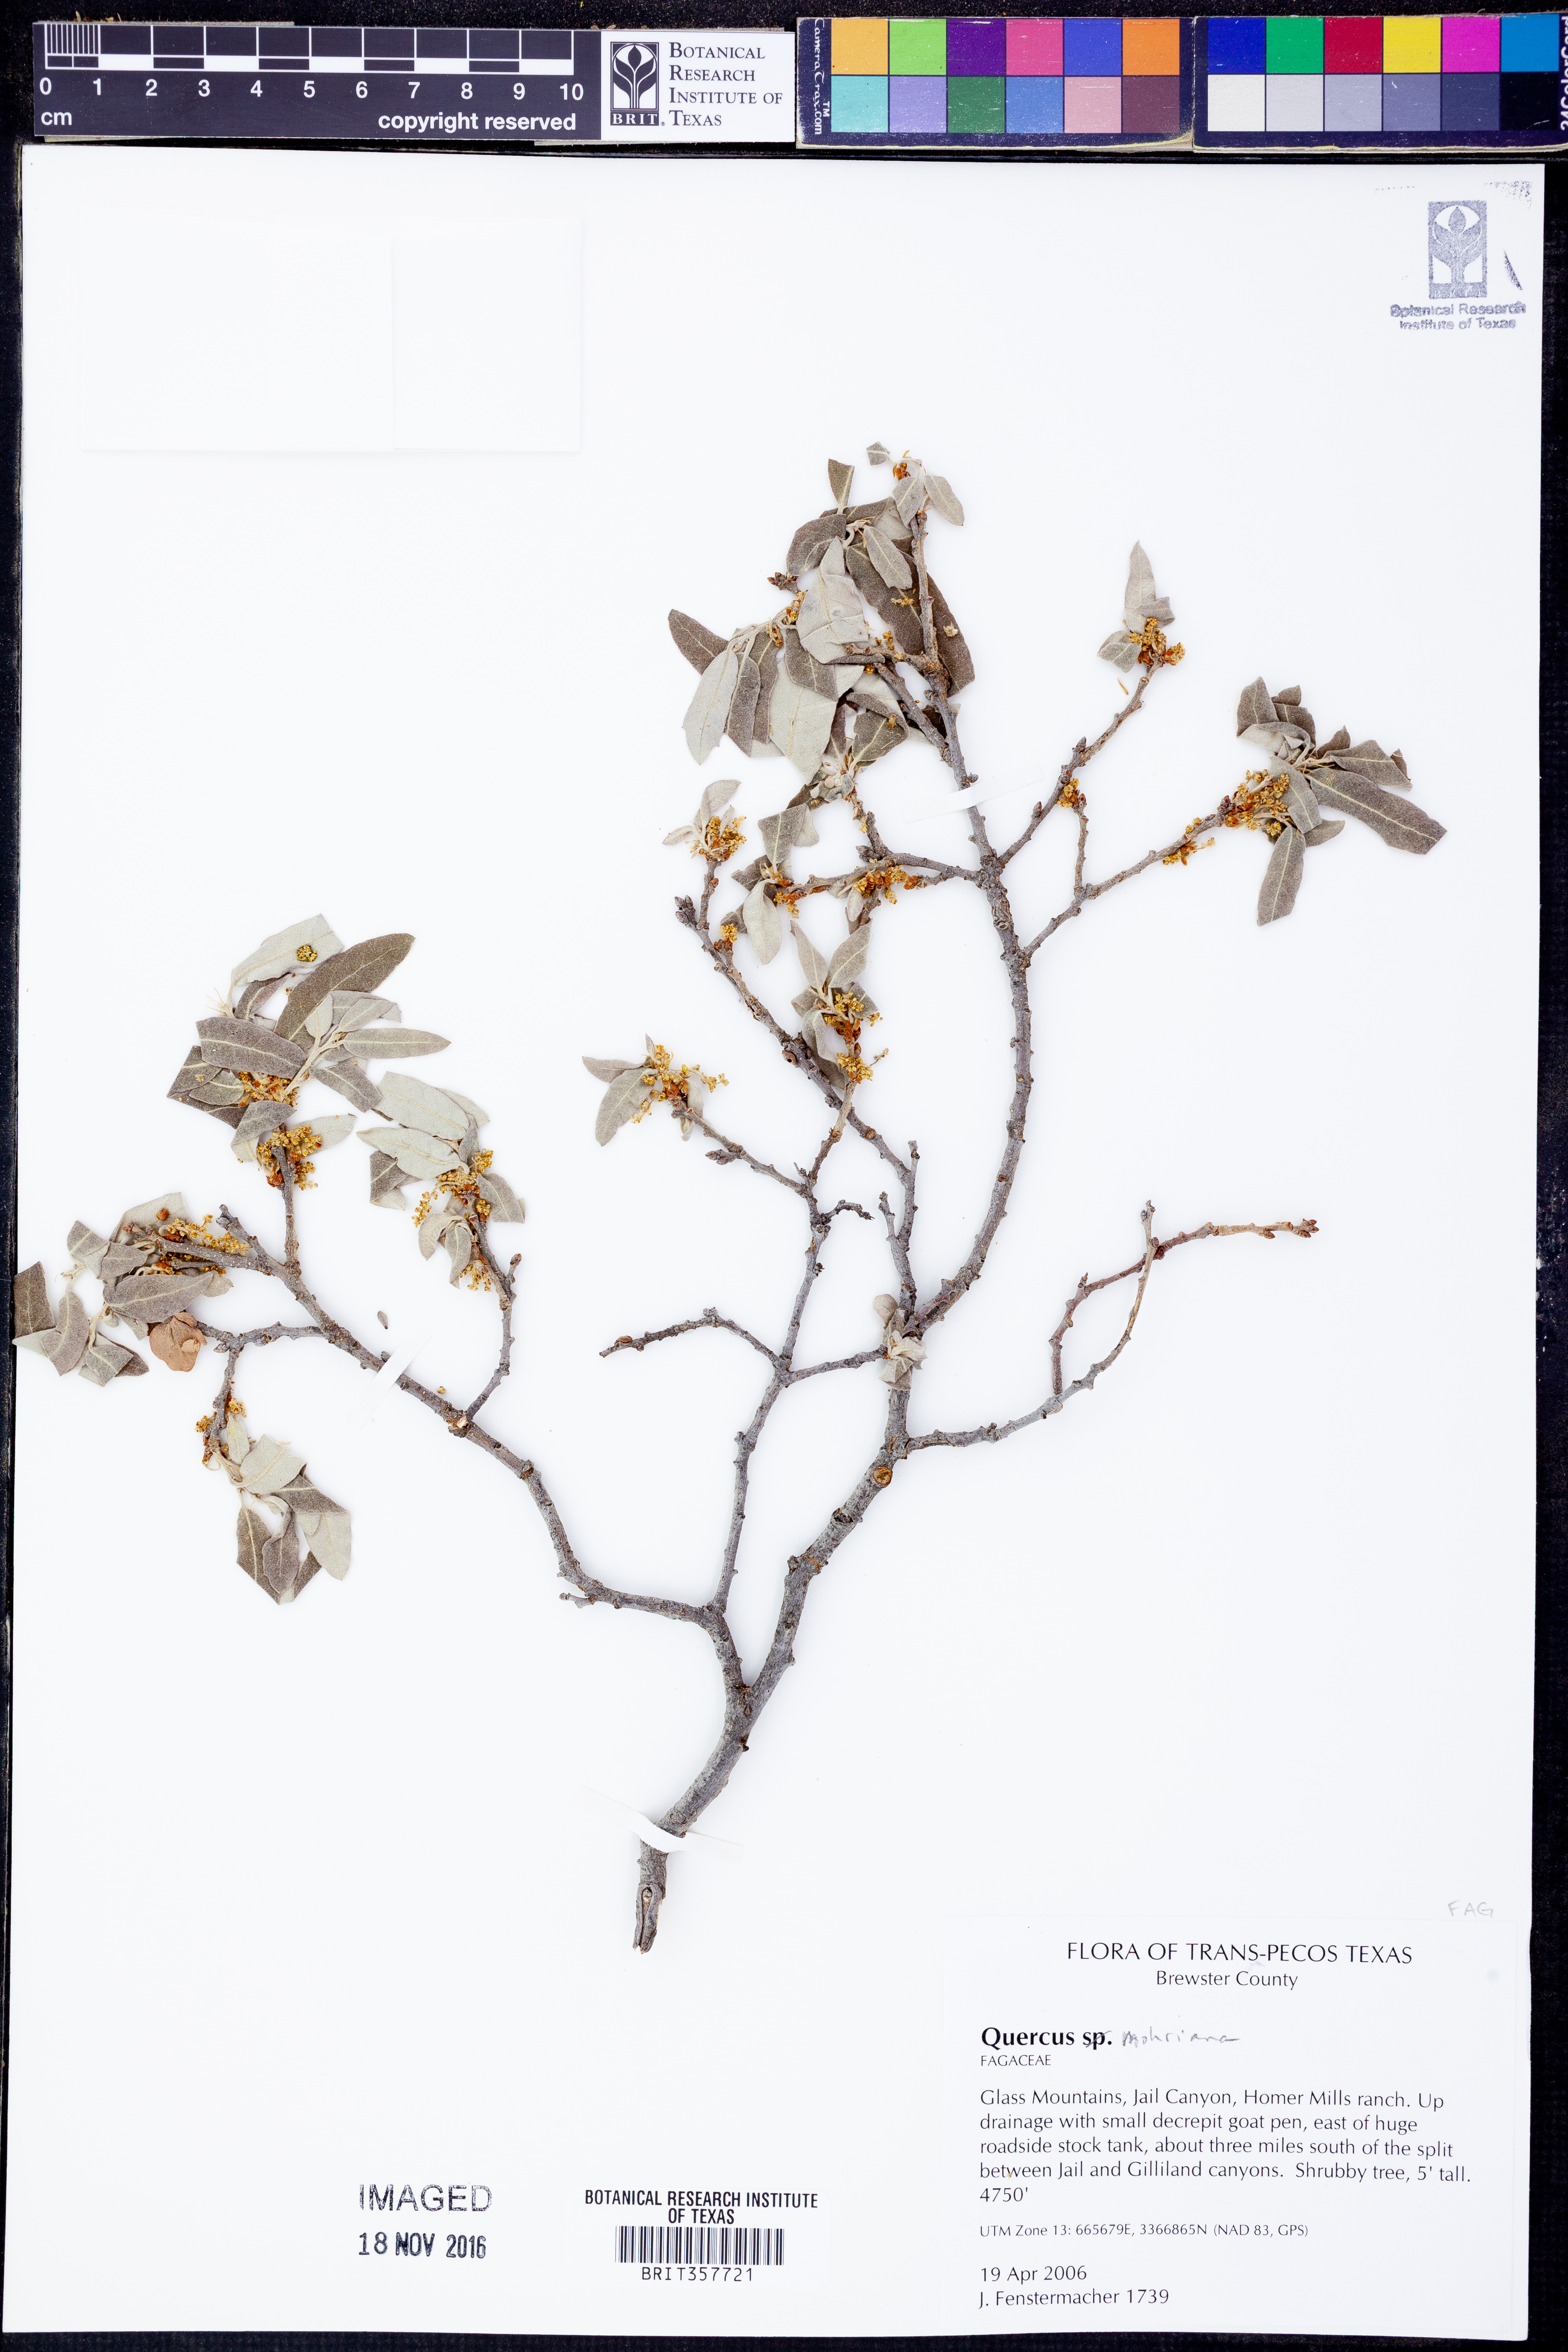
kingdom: Plantae
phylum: Tracheophyta
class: Magnoliopsida
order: Fagales
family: Fagaceae
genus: Quercus
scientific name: Quercus mohriana
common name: Mohr oak
